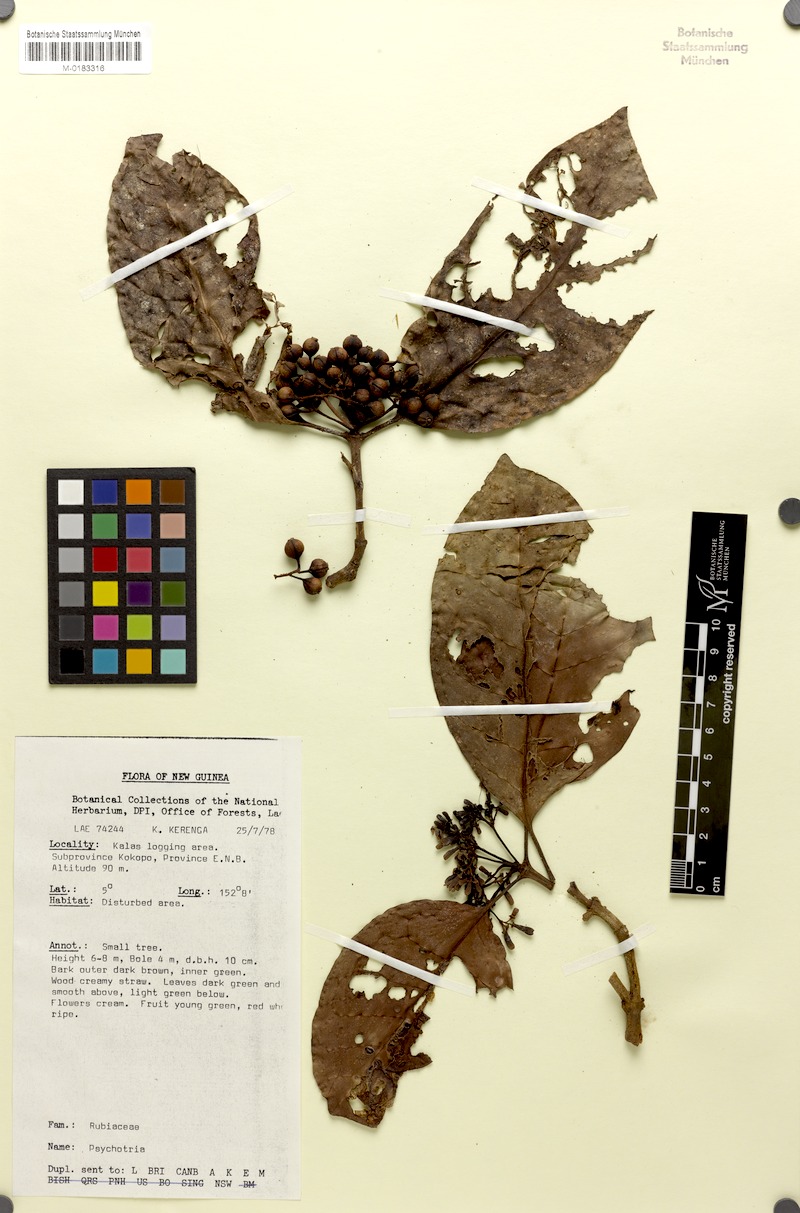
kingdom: Plantae
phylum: Tracheophyta
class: Magnoliopsida
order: Gentianales
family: Rubiaceae
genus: Psychotria
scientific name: Psychotria talasensis
